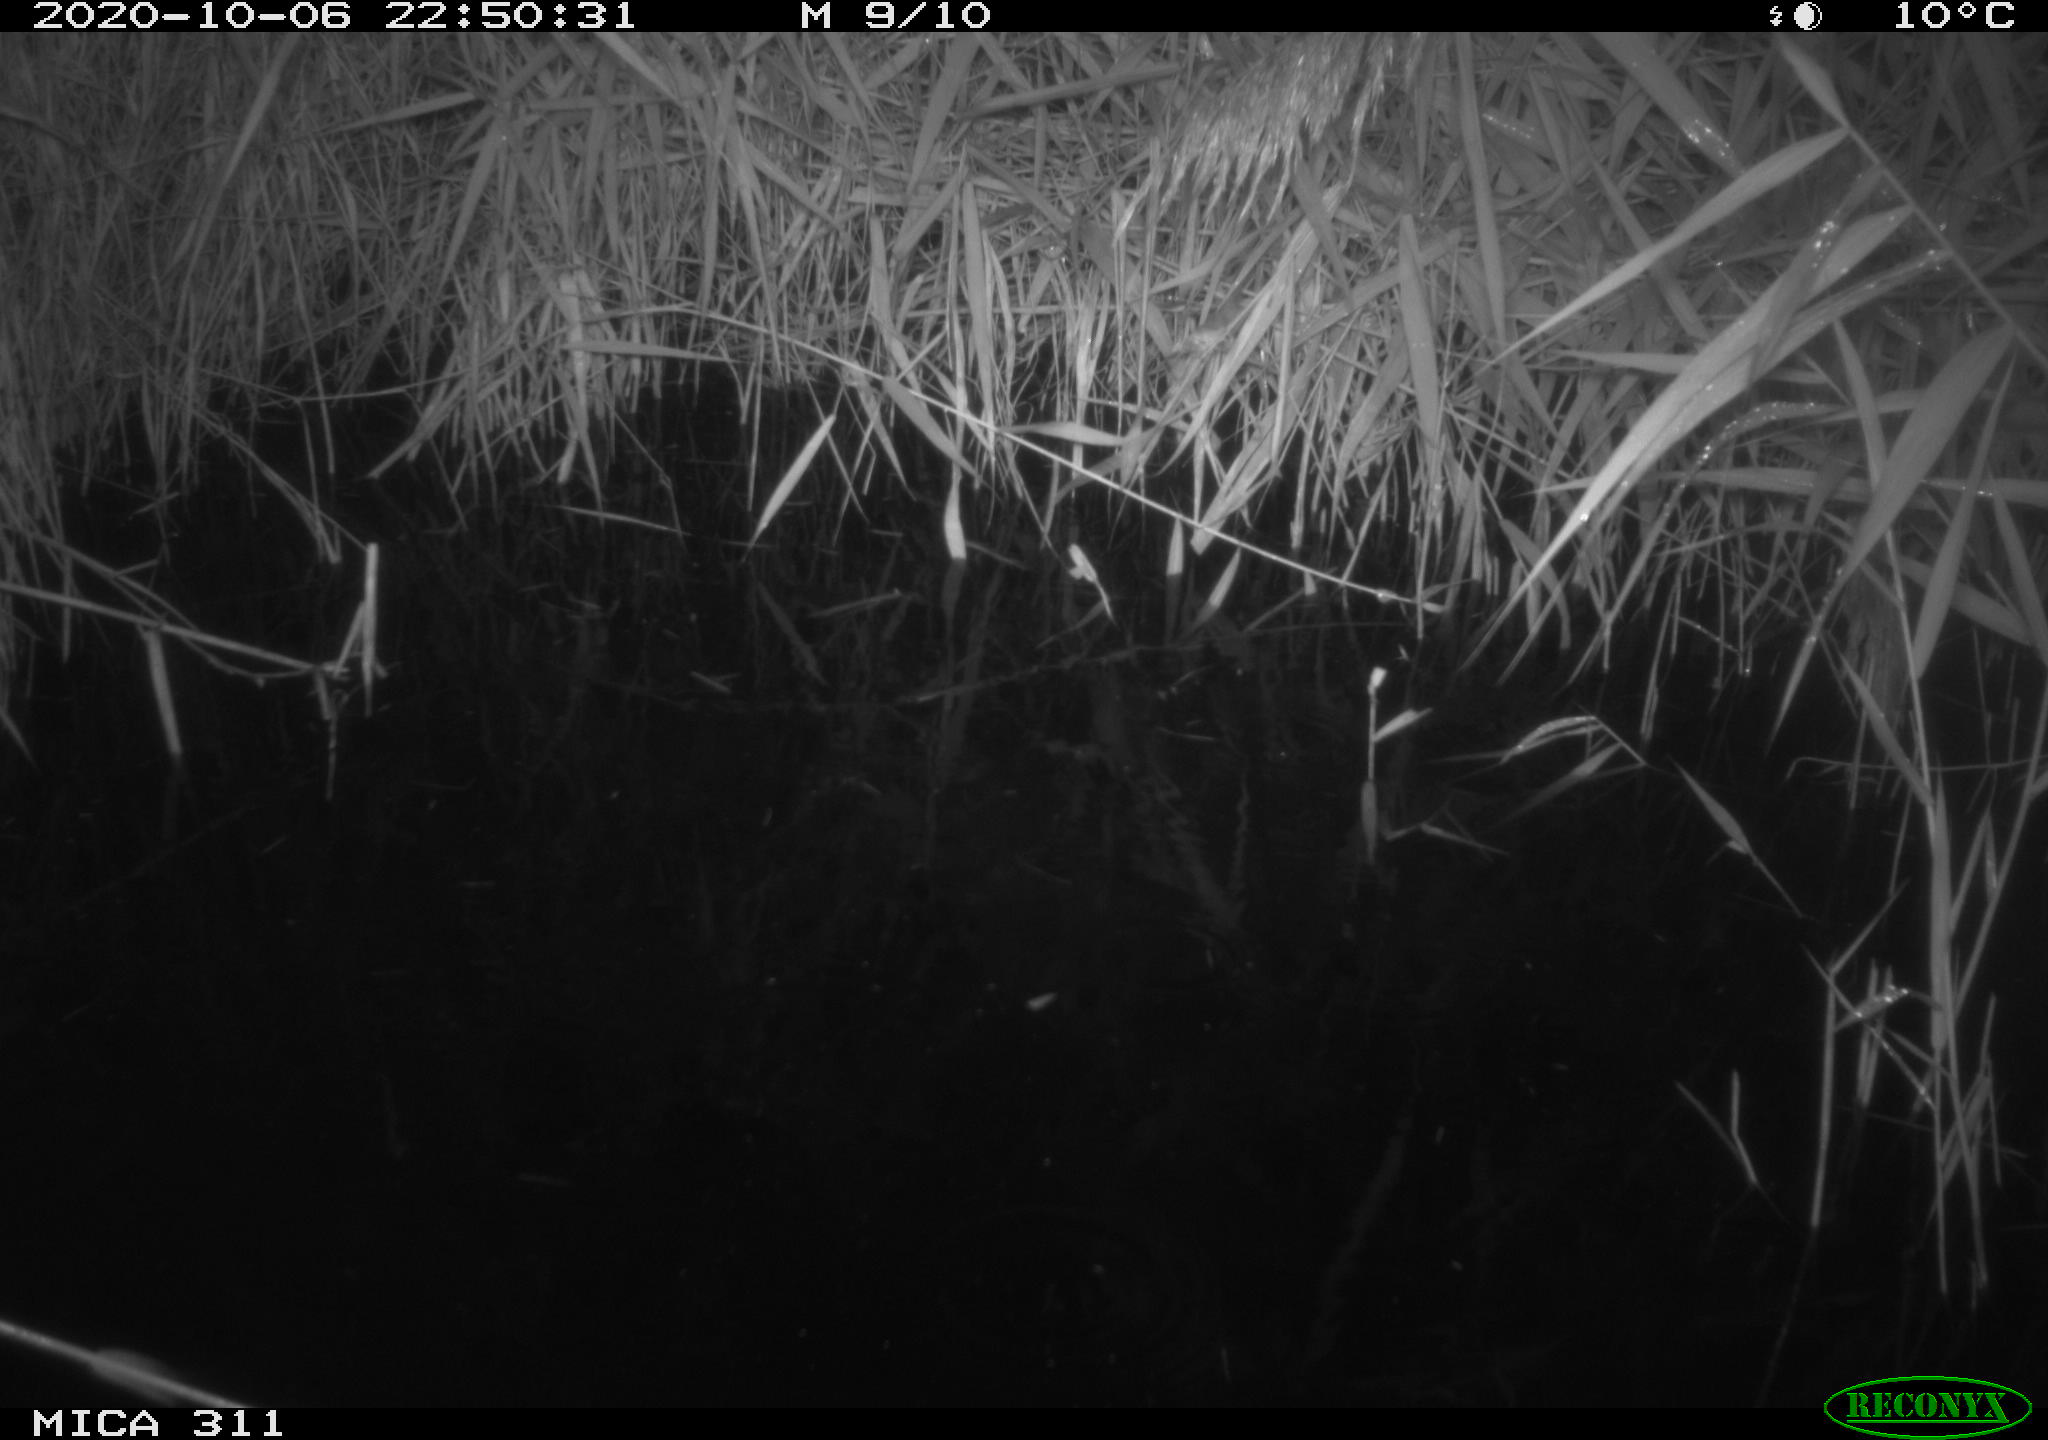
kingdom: Animalia
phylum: Chordata
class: Mammalia
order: Rodentia
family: Muridae
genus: Rattus
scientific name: Rattus norvegicus
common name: Brown rat
